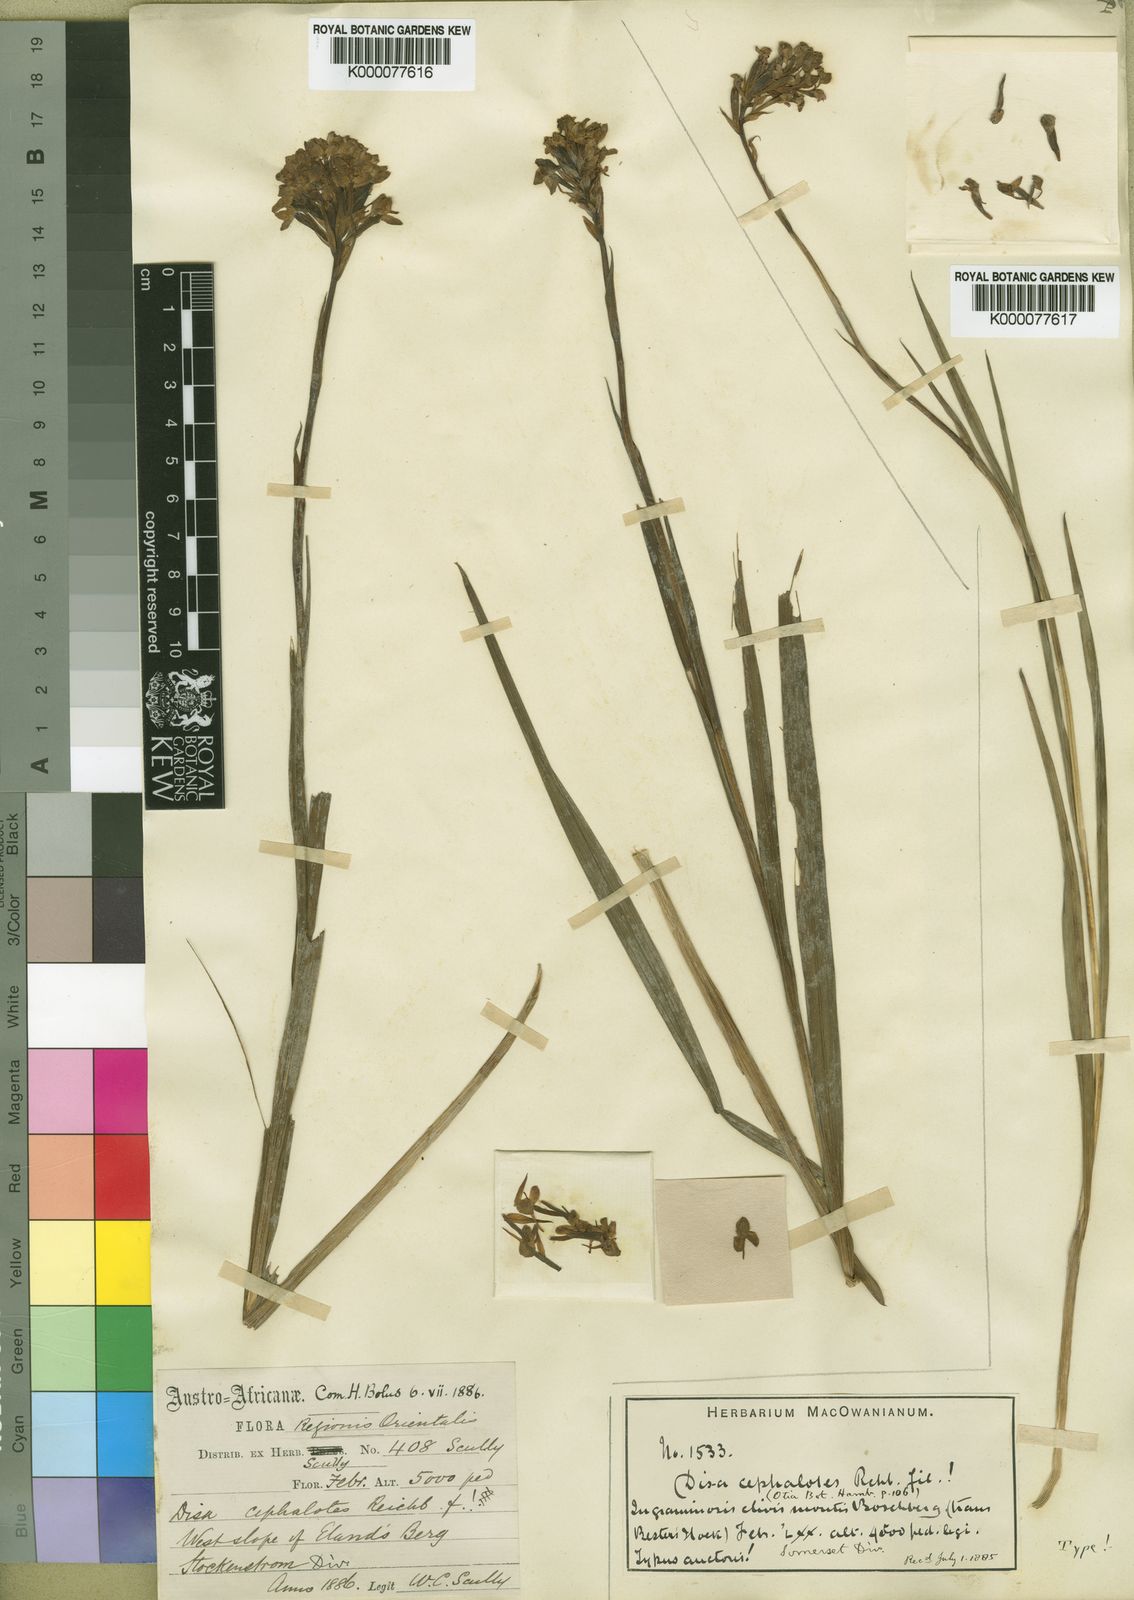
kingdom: Plantae
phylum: Tracheophyta
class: Liliopsida
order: Asparagales
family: Orchidaceae
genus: Disa
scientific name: Disa cephalotes
